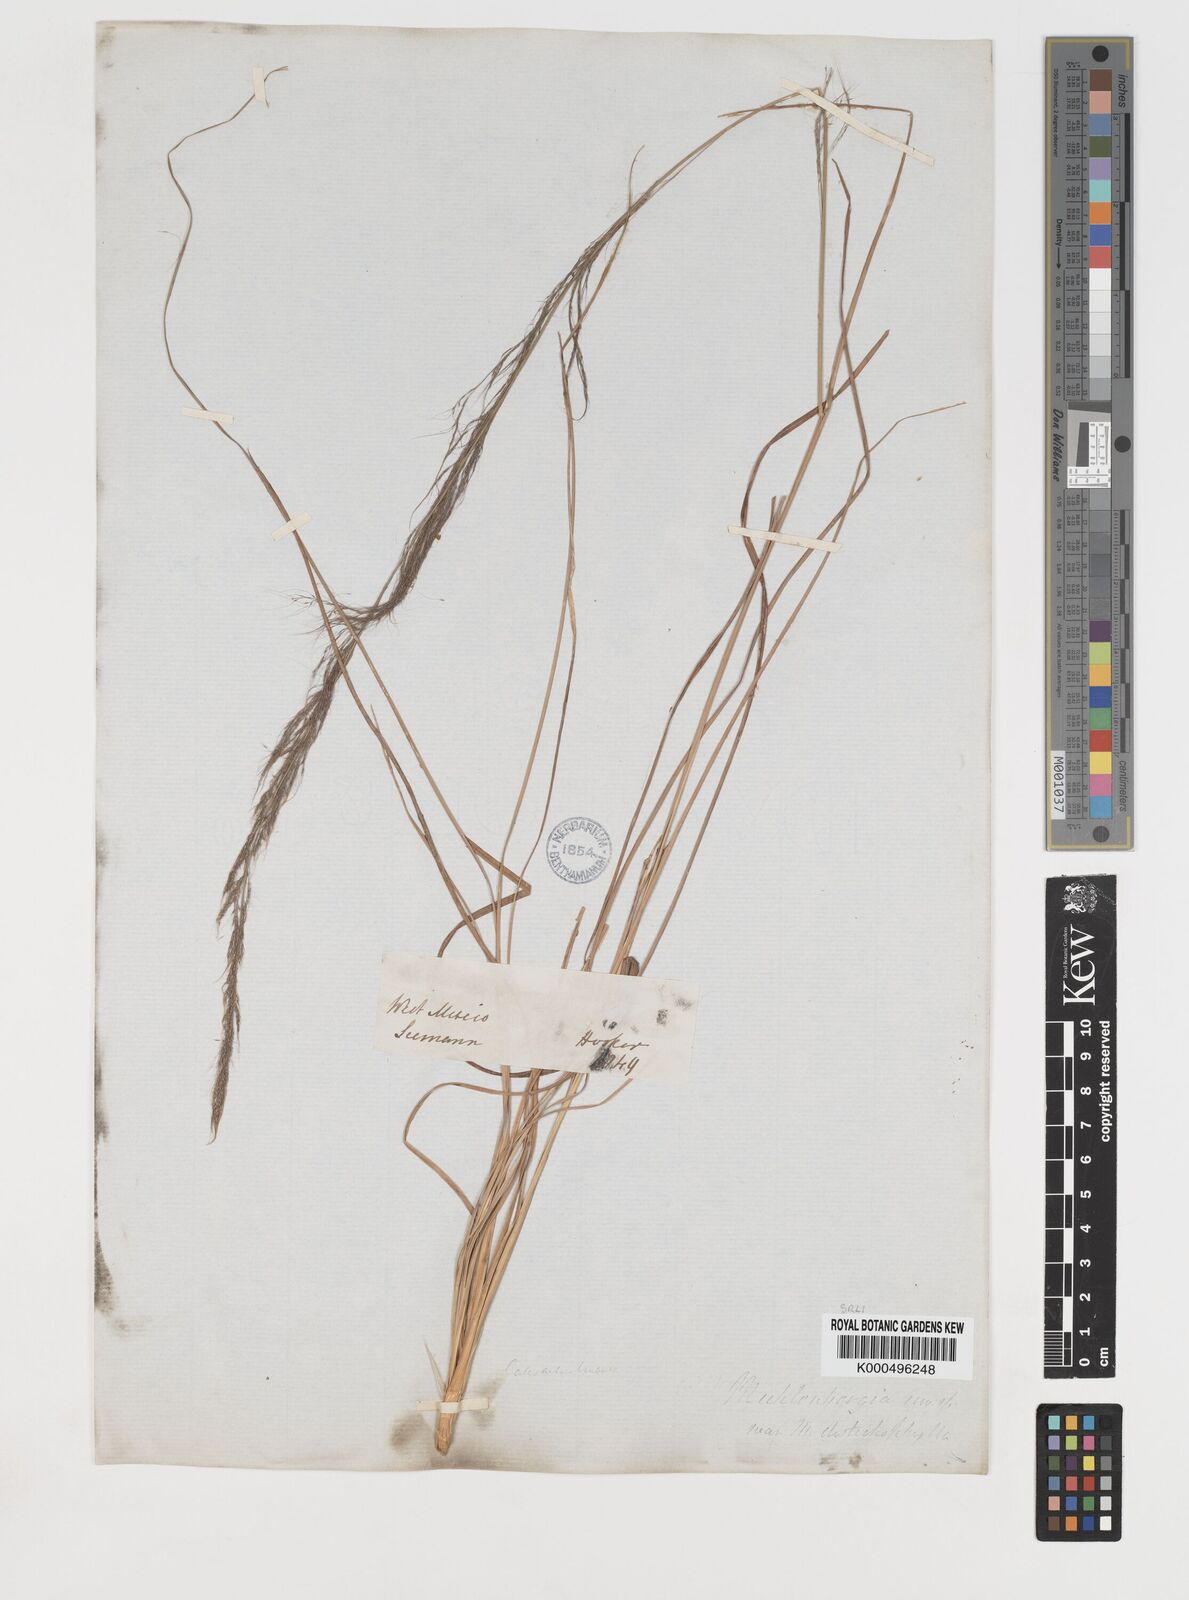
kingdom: Plantae
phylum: Tracheophyta
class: Liliopsida
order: Poales
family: Poaceae
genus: Muhlenbergia
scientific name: Muhlenbergia
